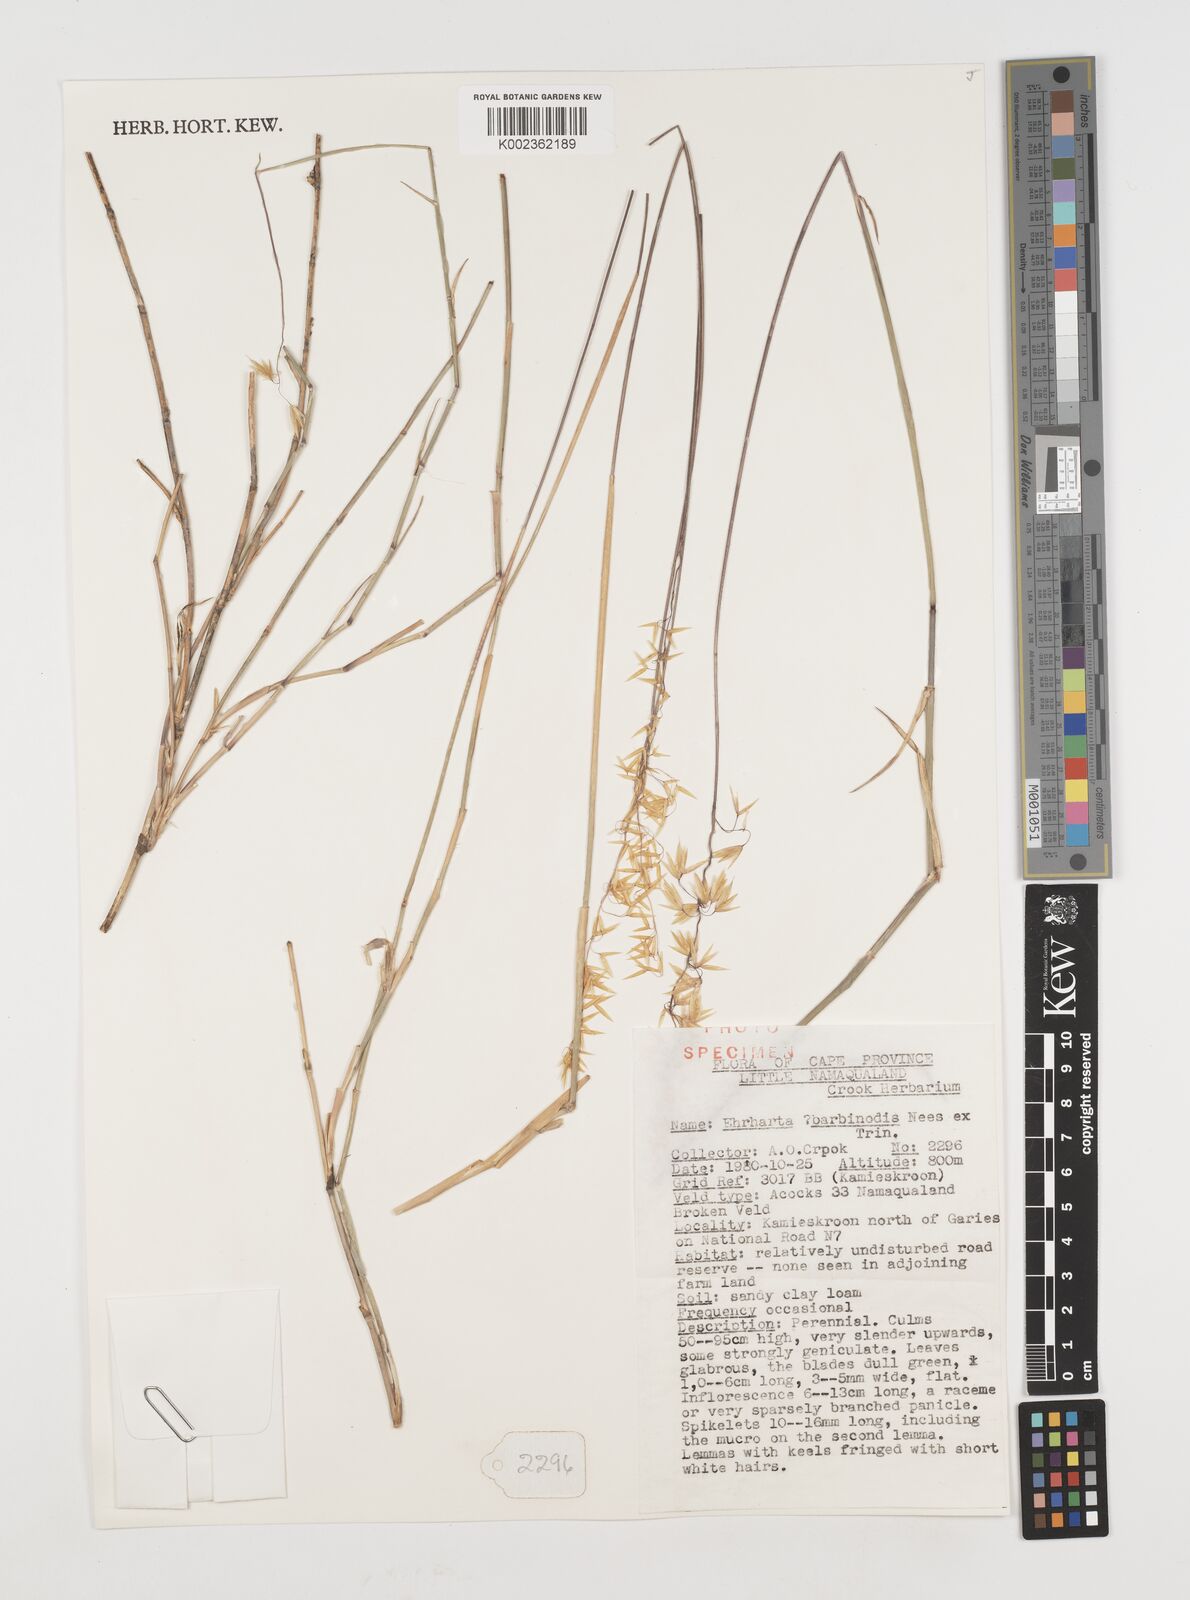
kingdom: Plantae
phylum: Tracheophyta
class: Liliopsida
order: Poales
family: Poaceae
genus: Ehrharta
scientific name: Ehrharta
